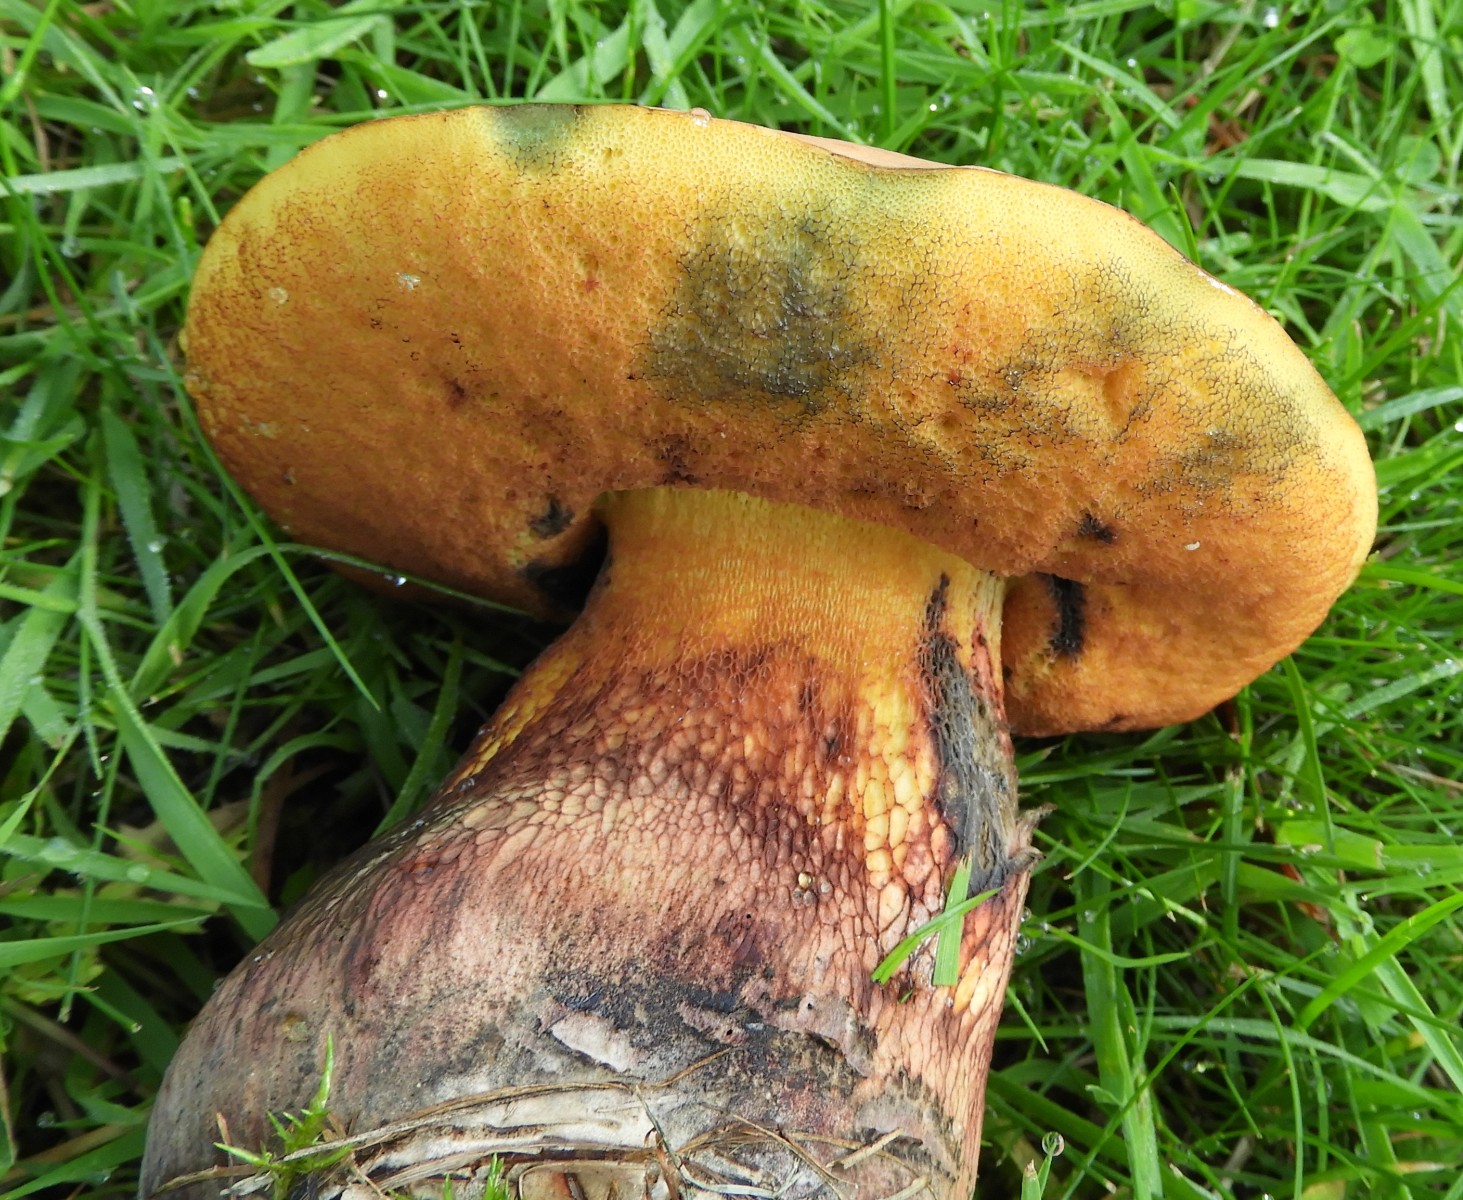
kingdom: Fungi
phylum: Basidiomycota
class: Agaricomycetes
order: Boletales
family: Boletaceae
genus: Suillellus
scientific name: Suillellus luridus
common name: netstokket indigorørhat
